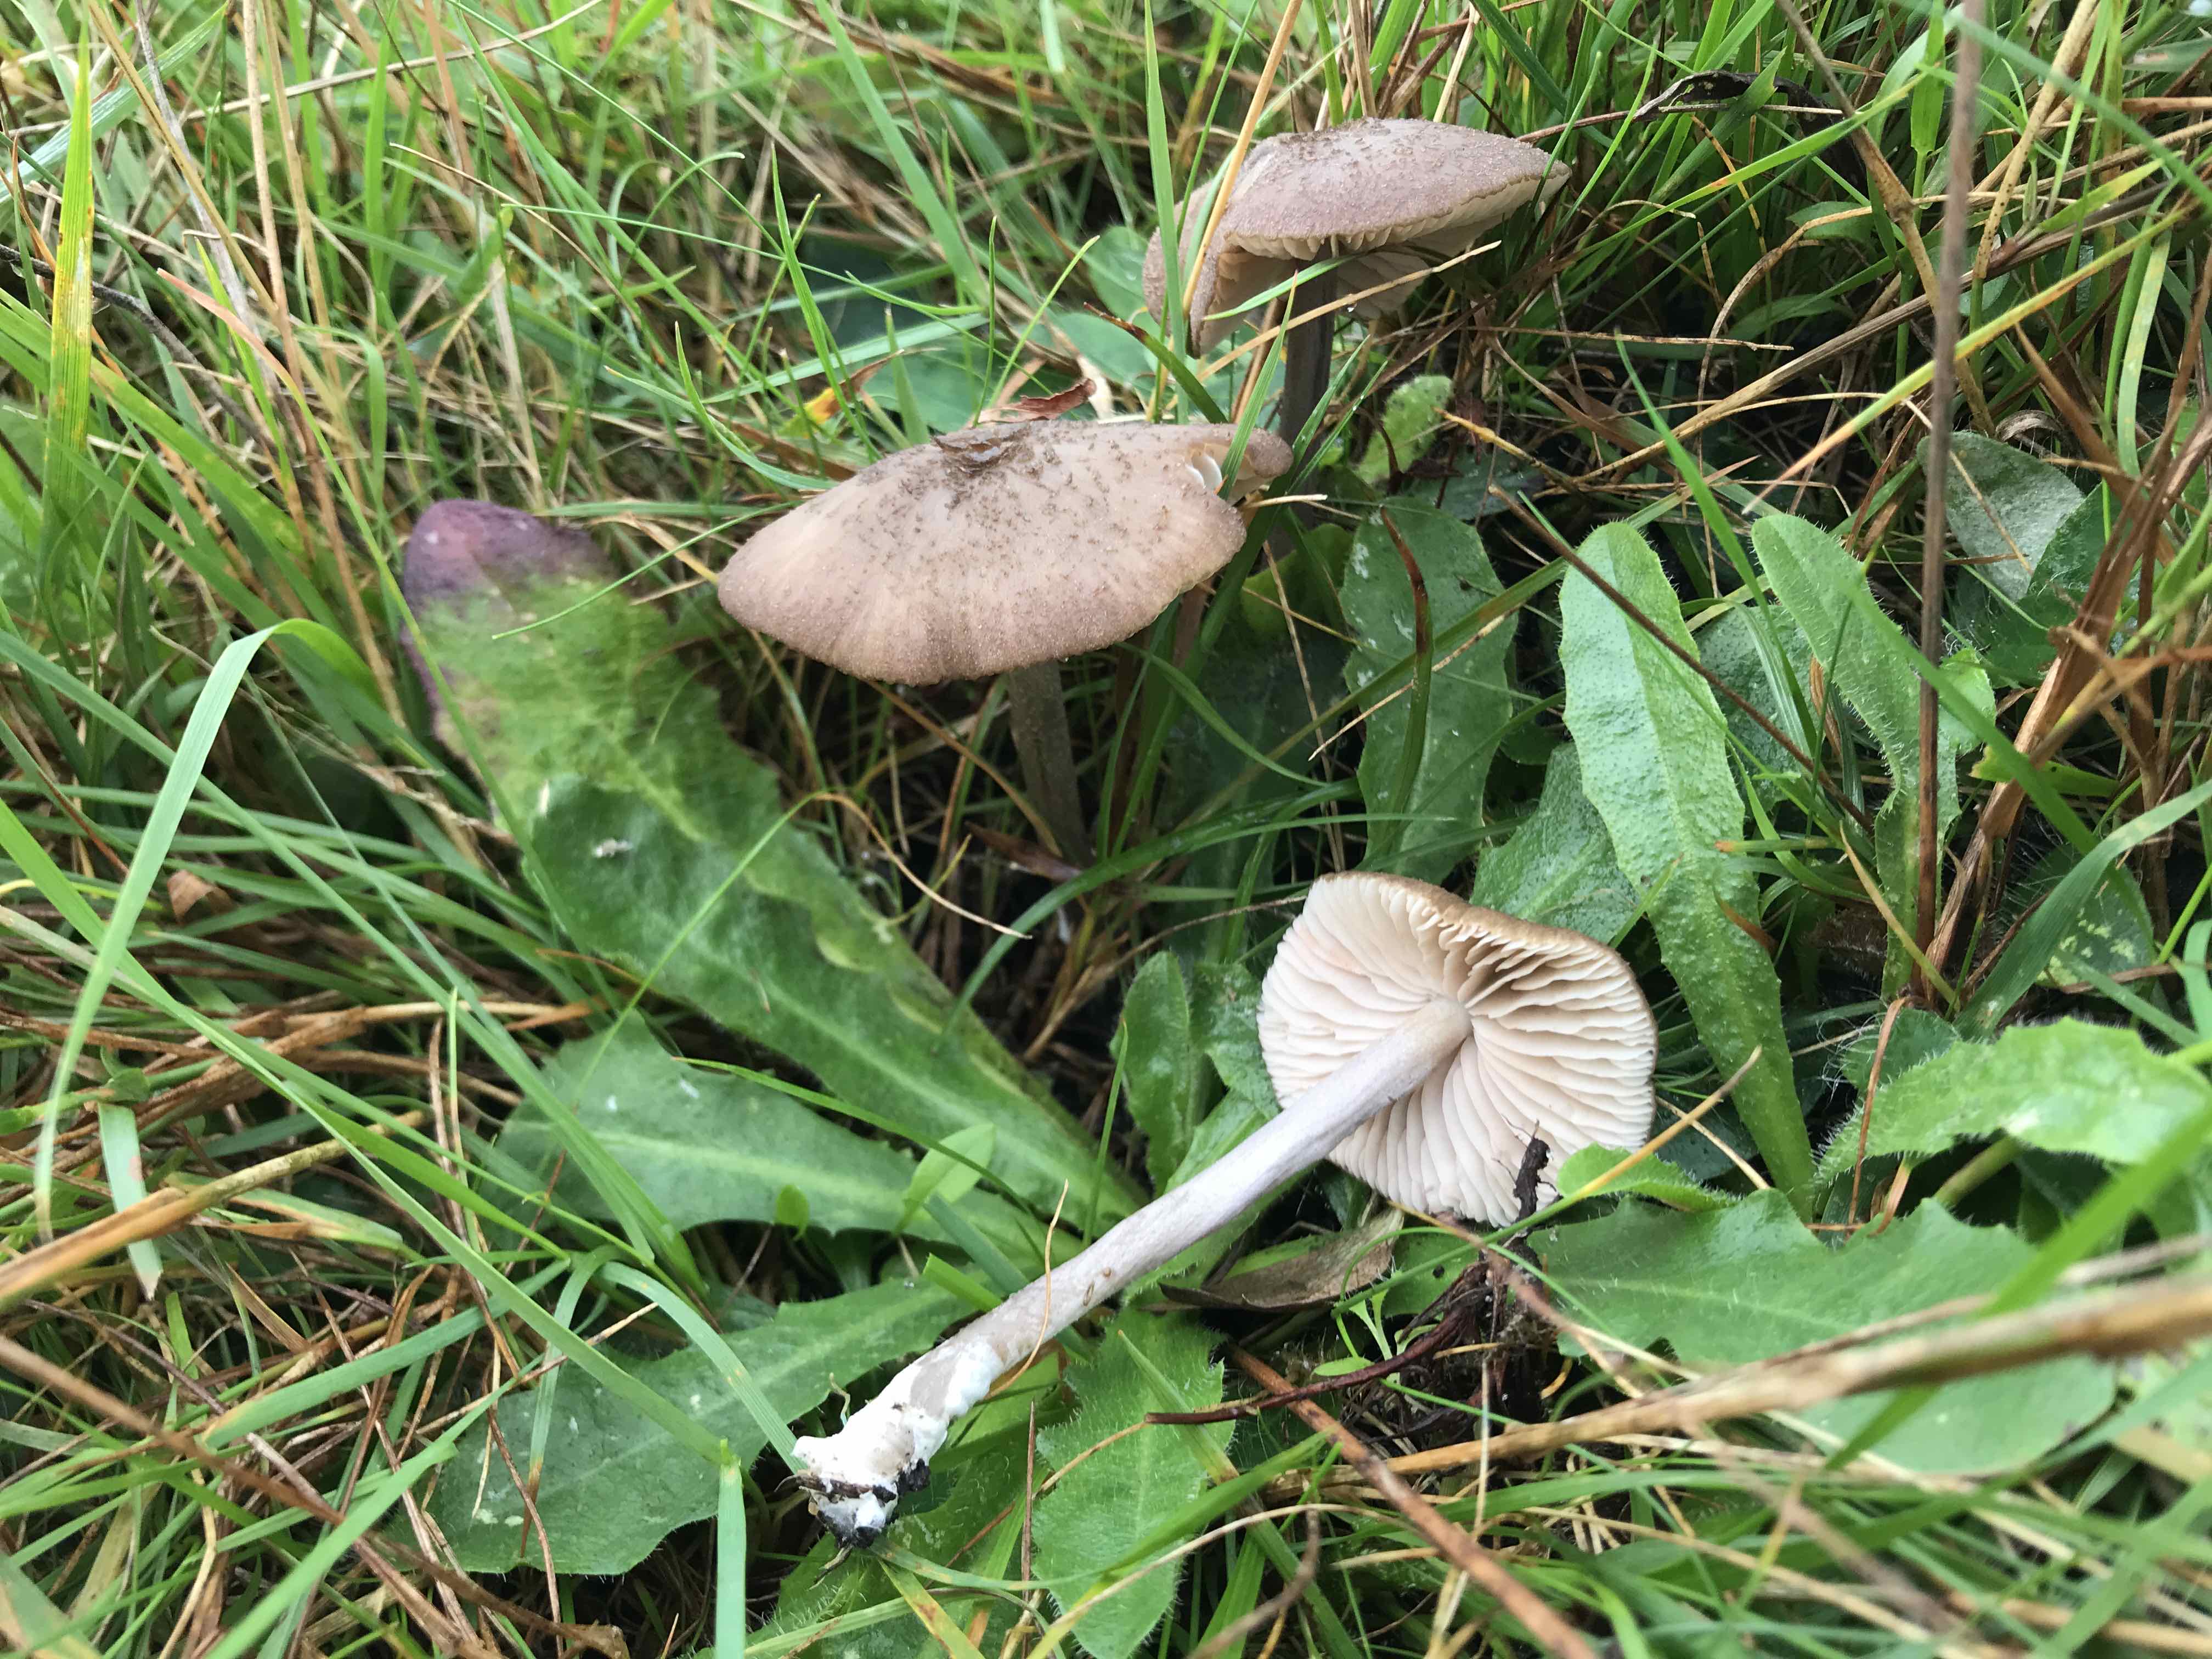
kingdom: Fungi
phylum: Basidiomycota
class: Agaricomycetes
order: Agaricales
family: Entolomataceae
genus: Entoloma
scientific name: Entoloma griseocyaneum
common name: gråblå rødblad
